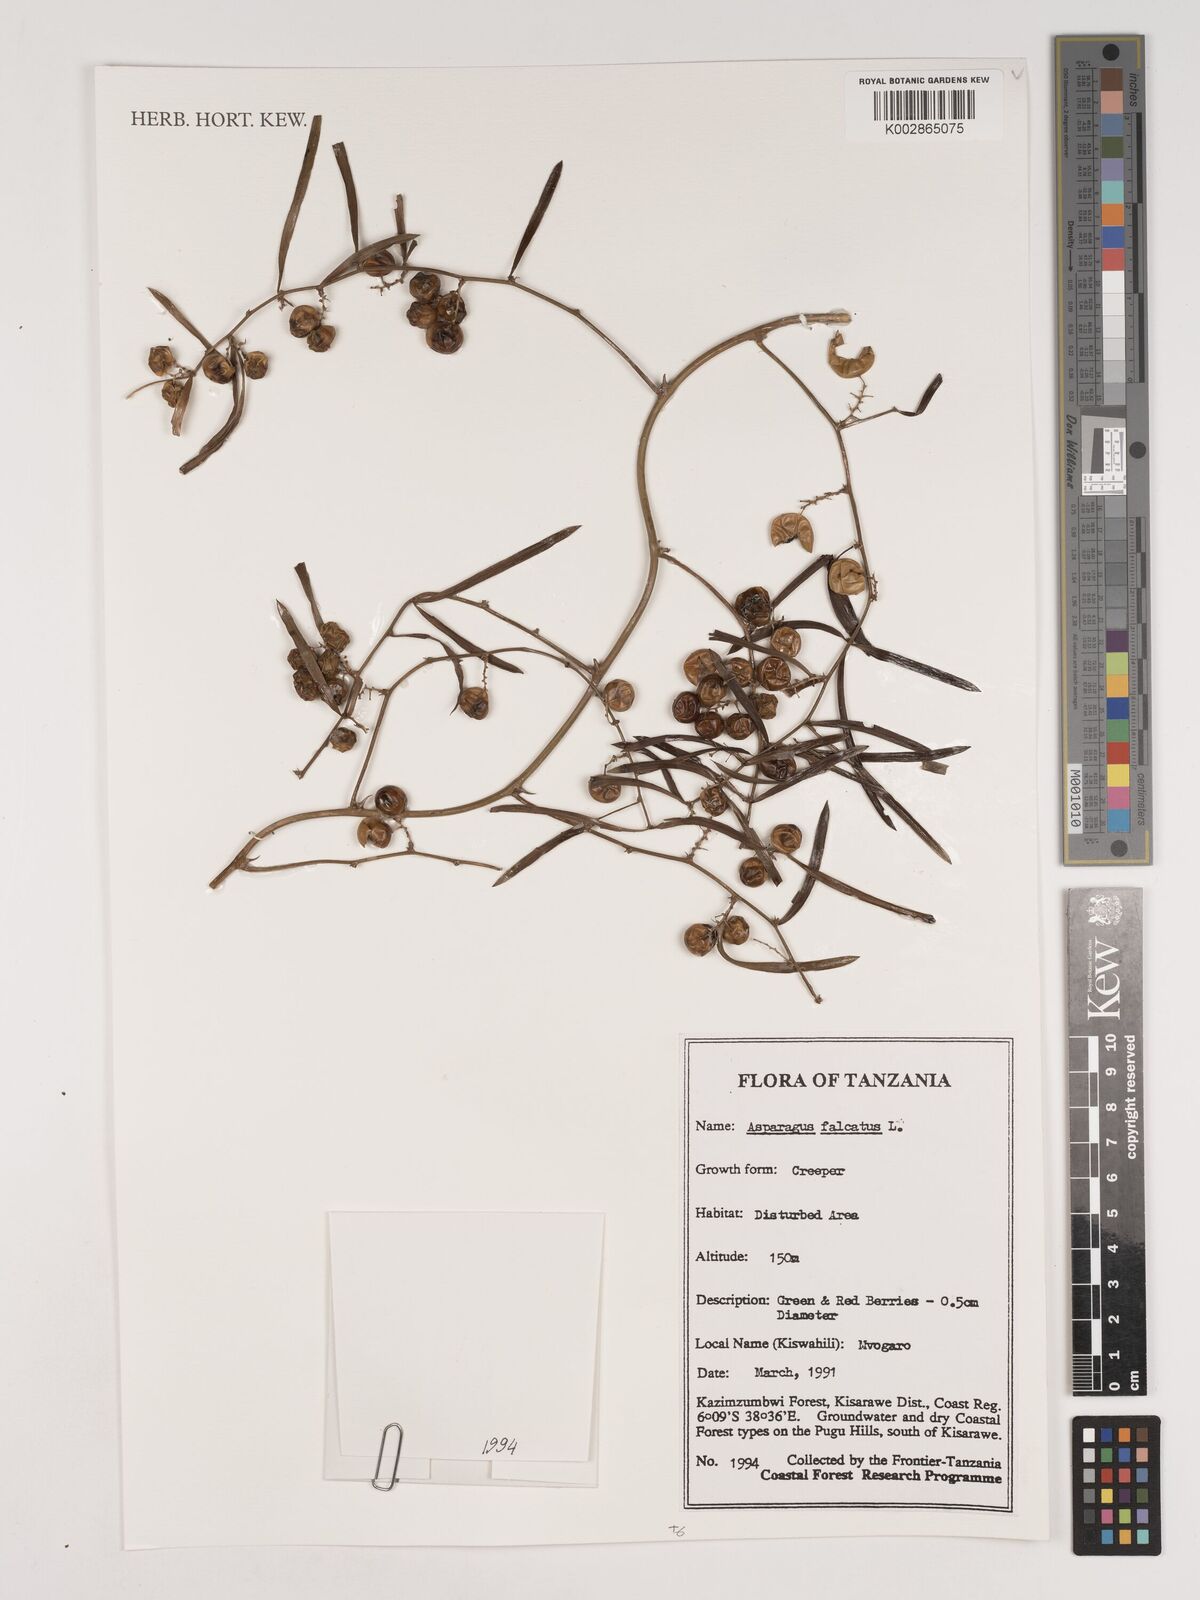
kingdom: Plantae
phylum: Tracheophyta
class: Liliopsida
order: Asparagales
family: Asparagaceae
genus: Asparagus
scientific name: Asparagus falcatus
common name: Asparagus
